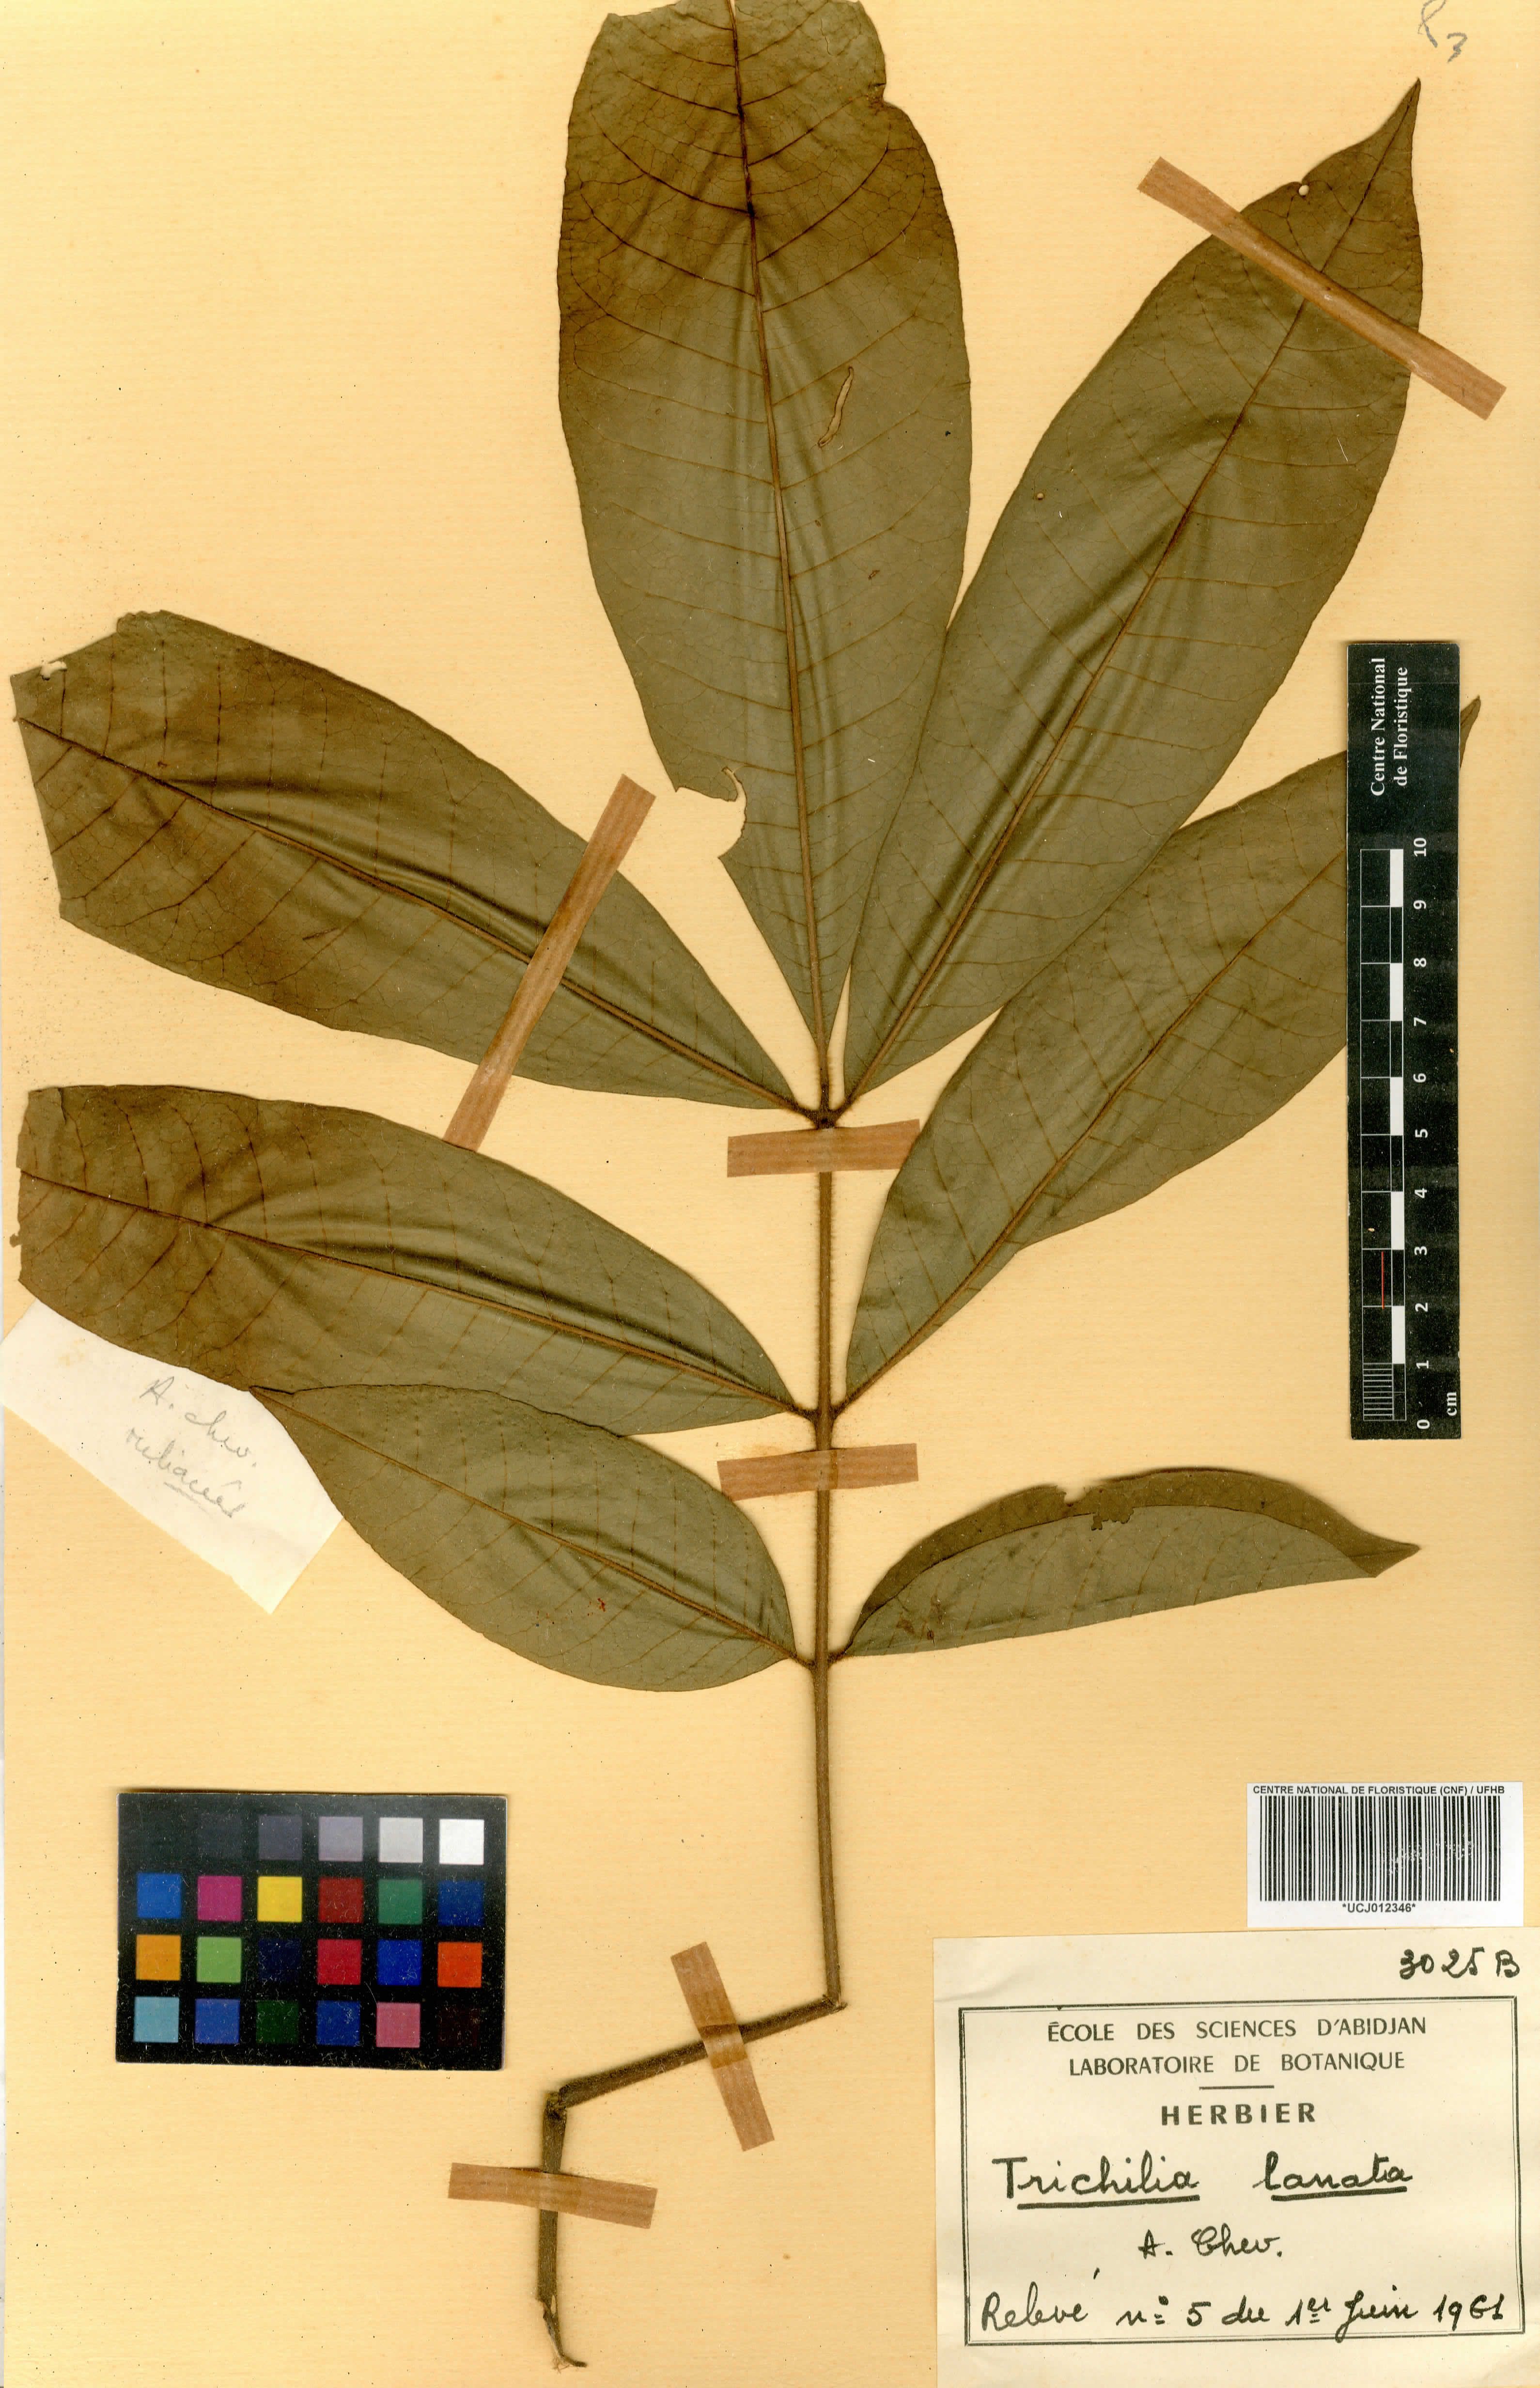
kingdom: Plantae
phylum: Tracheophyta
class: Magnoliopsida
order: Sapindales
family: Meliaceae
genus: Trichilia
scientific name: Trichilia tessmannii
